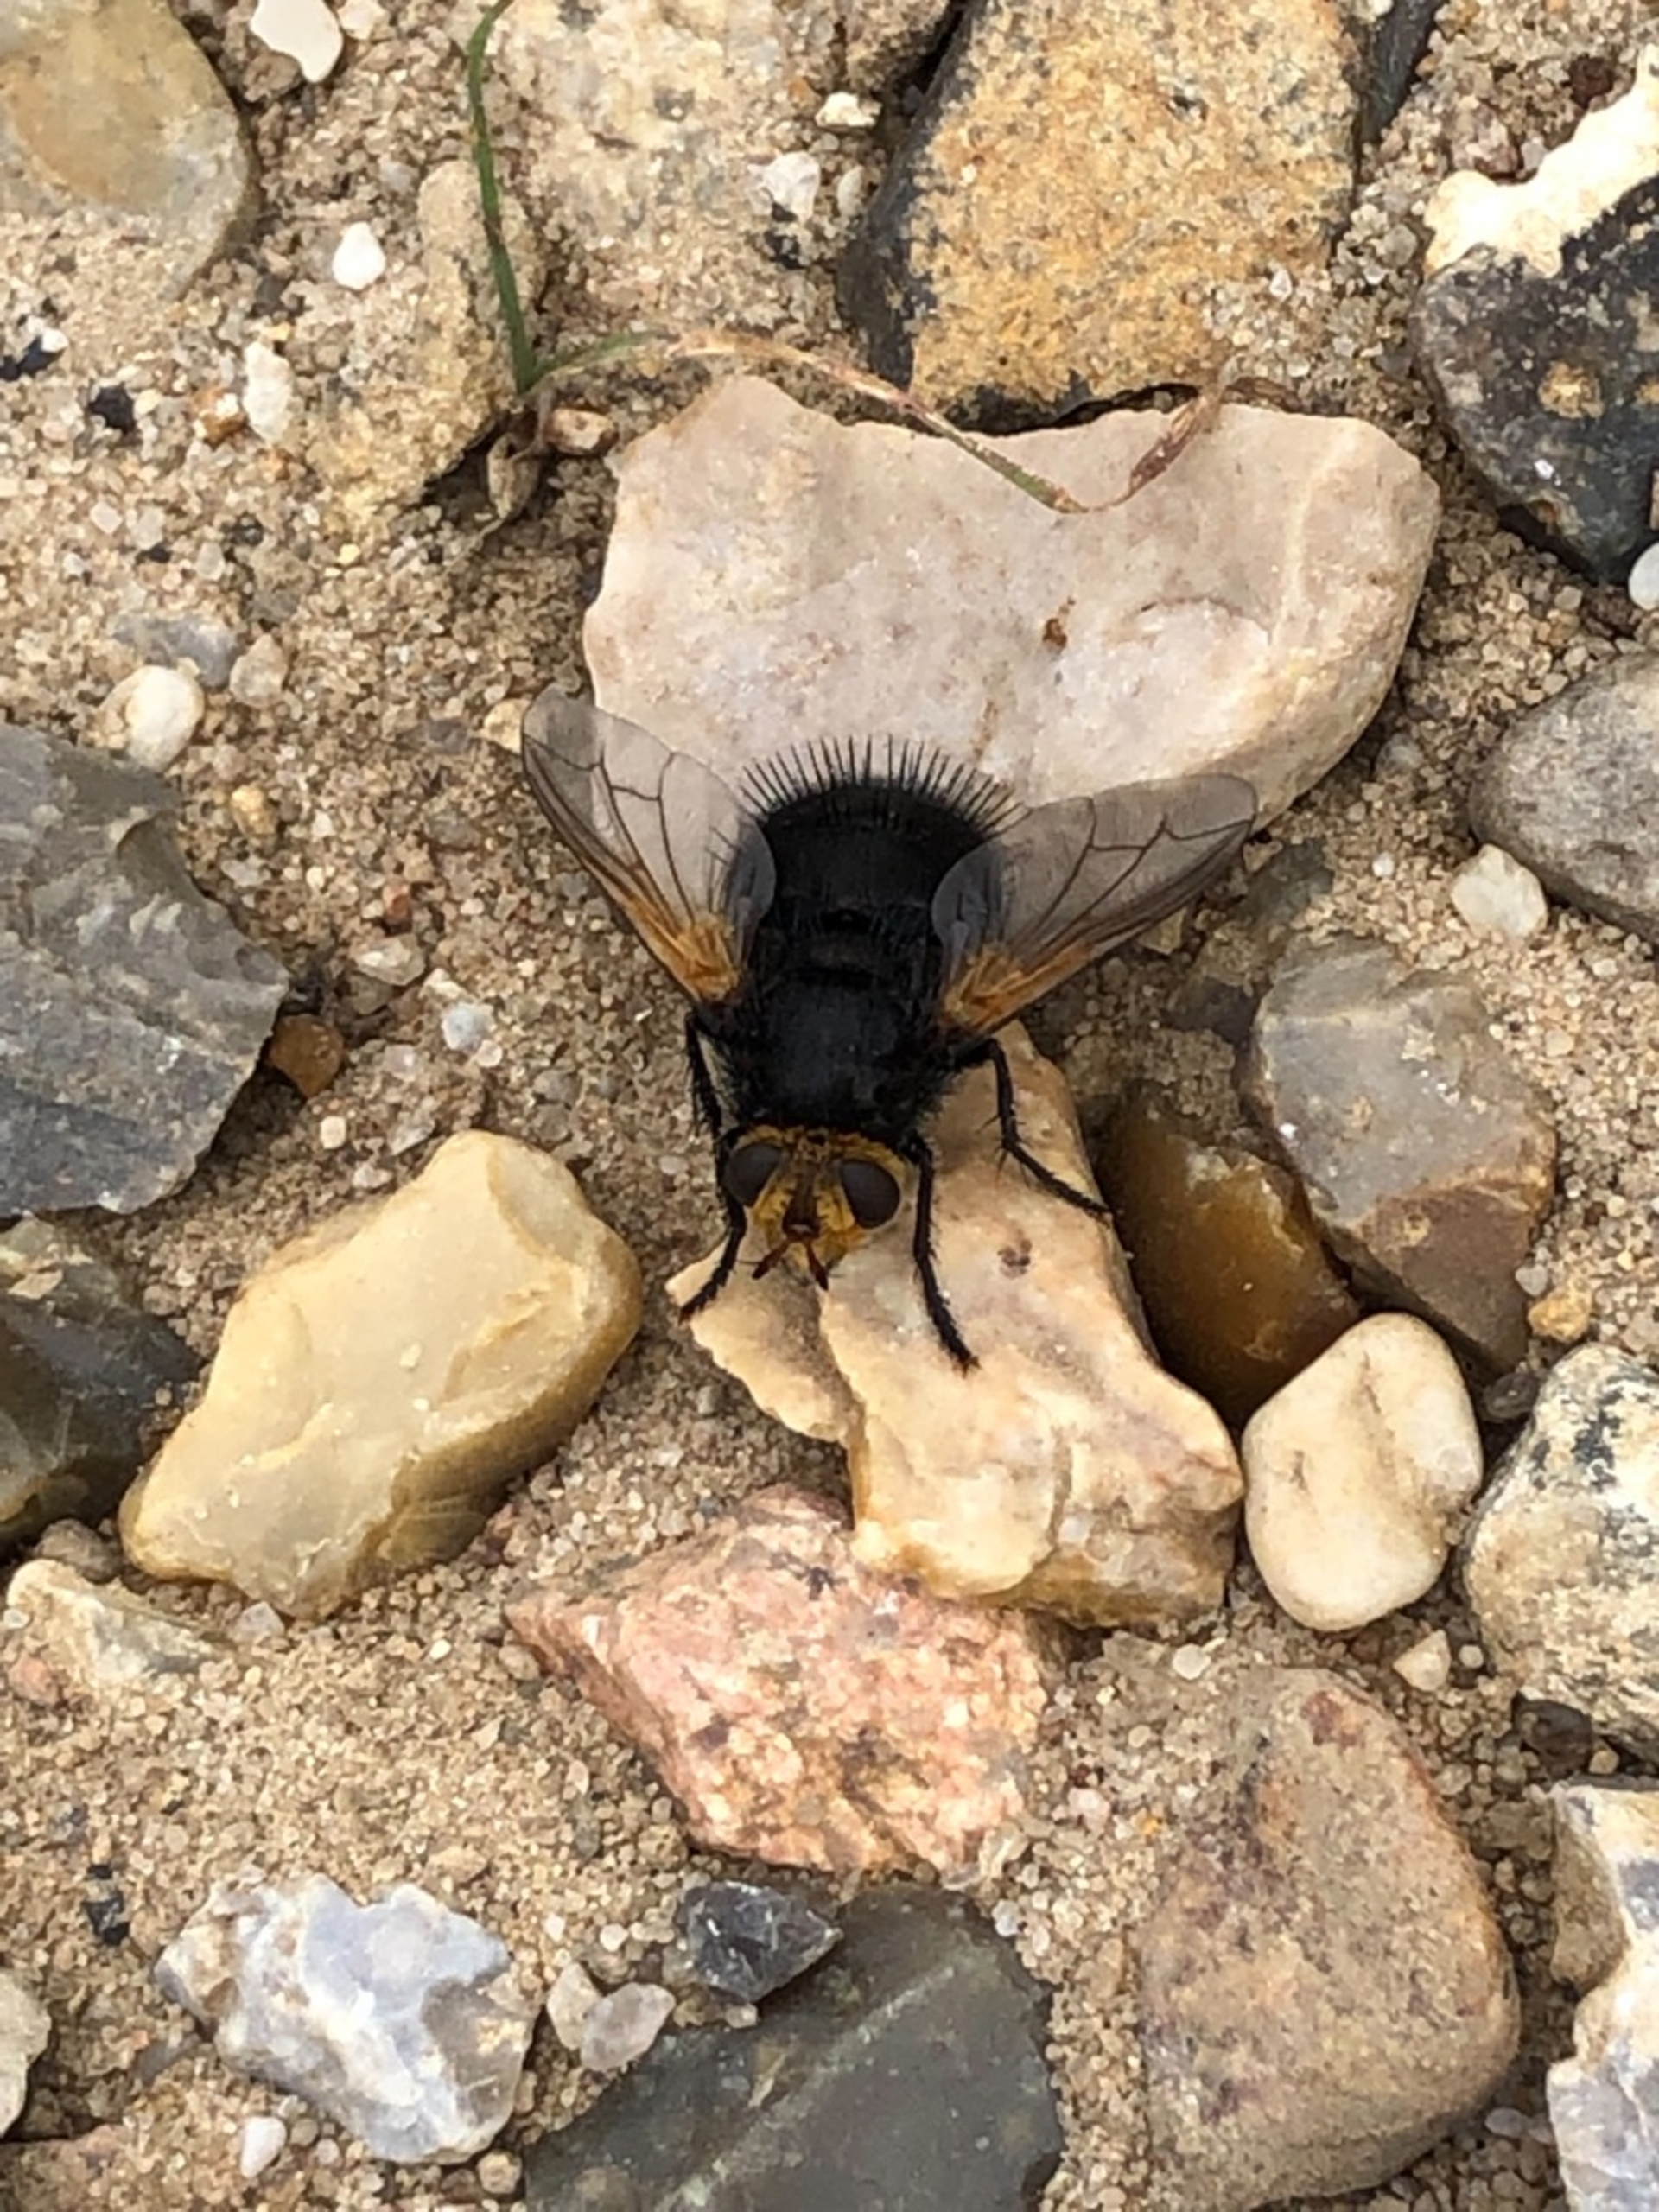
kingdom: Animalia
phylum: Arthropoda
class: Insecta
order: Diptera
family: Tachinidae
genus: Tachina
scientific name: Tachina grossa
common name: Kæmpefluen Harald
